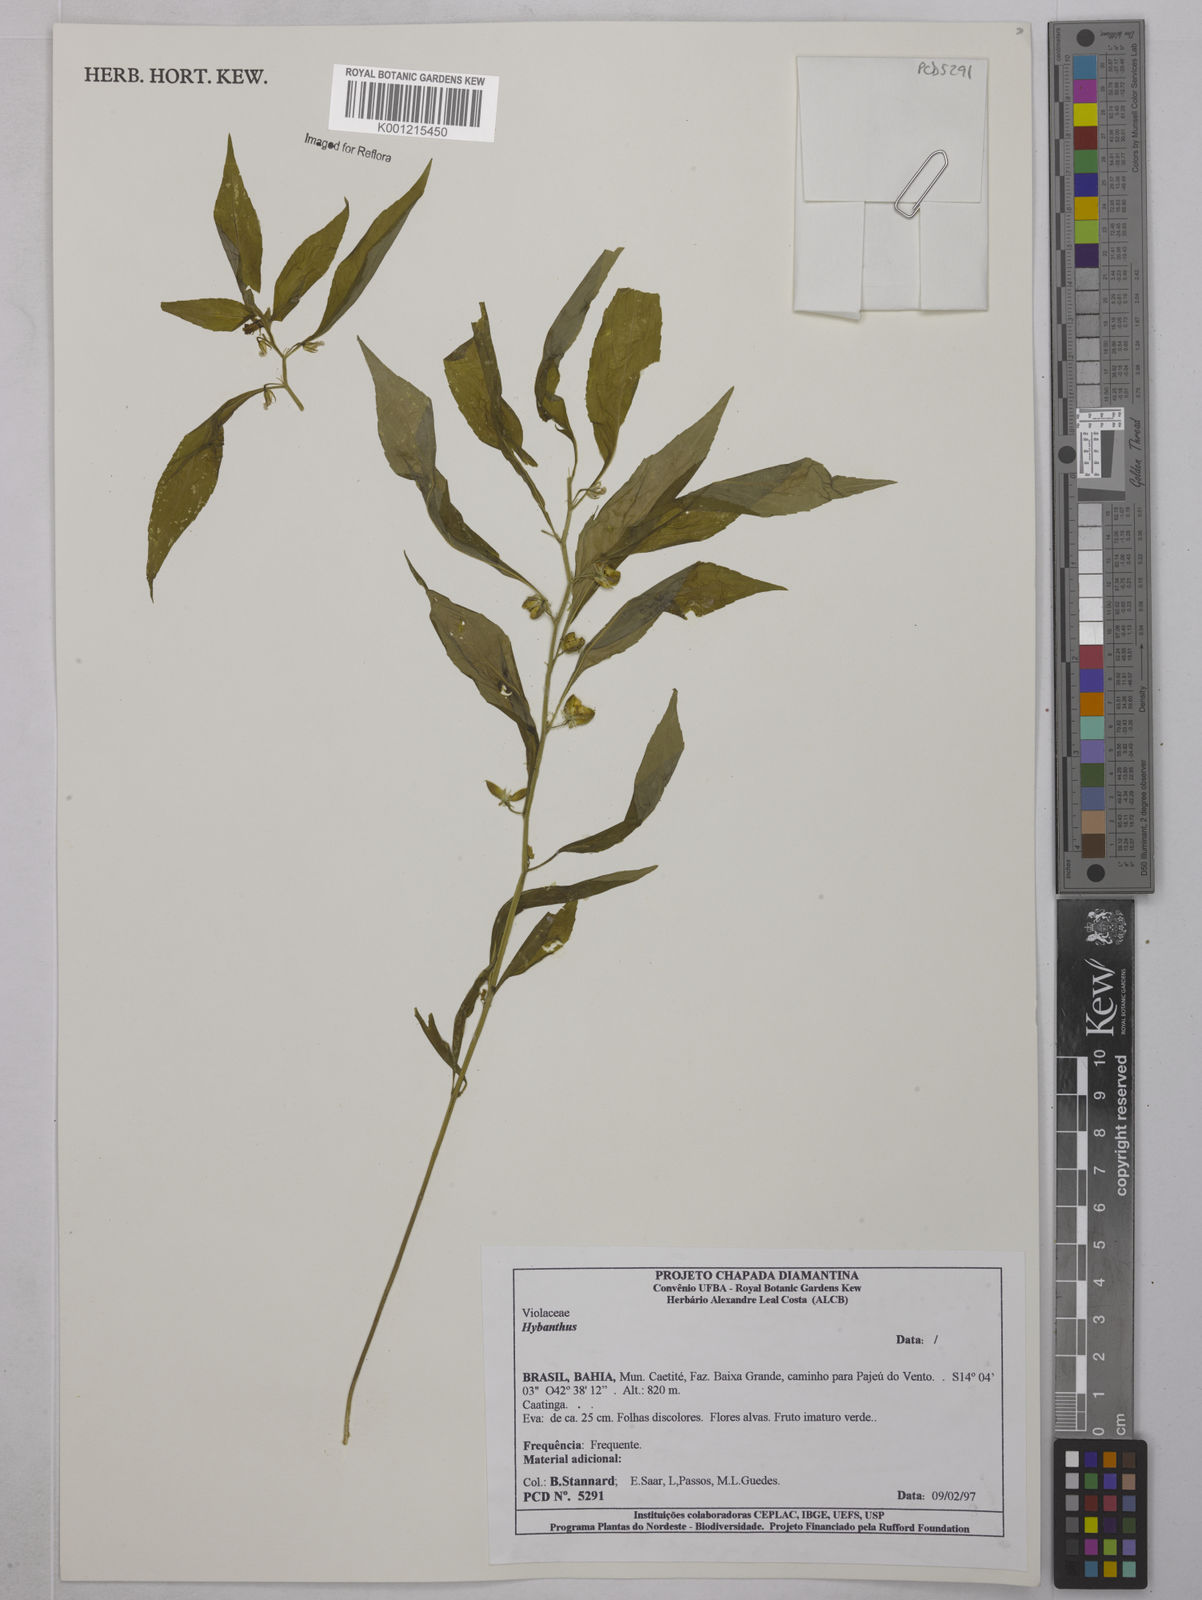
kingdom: Plantae
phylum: Tracheophyta
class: Magnoliopsida
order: Malpighiales
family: Violaceae
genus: Hybanthus
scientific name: Hybanthus
